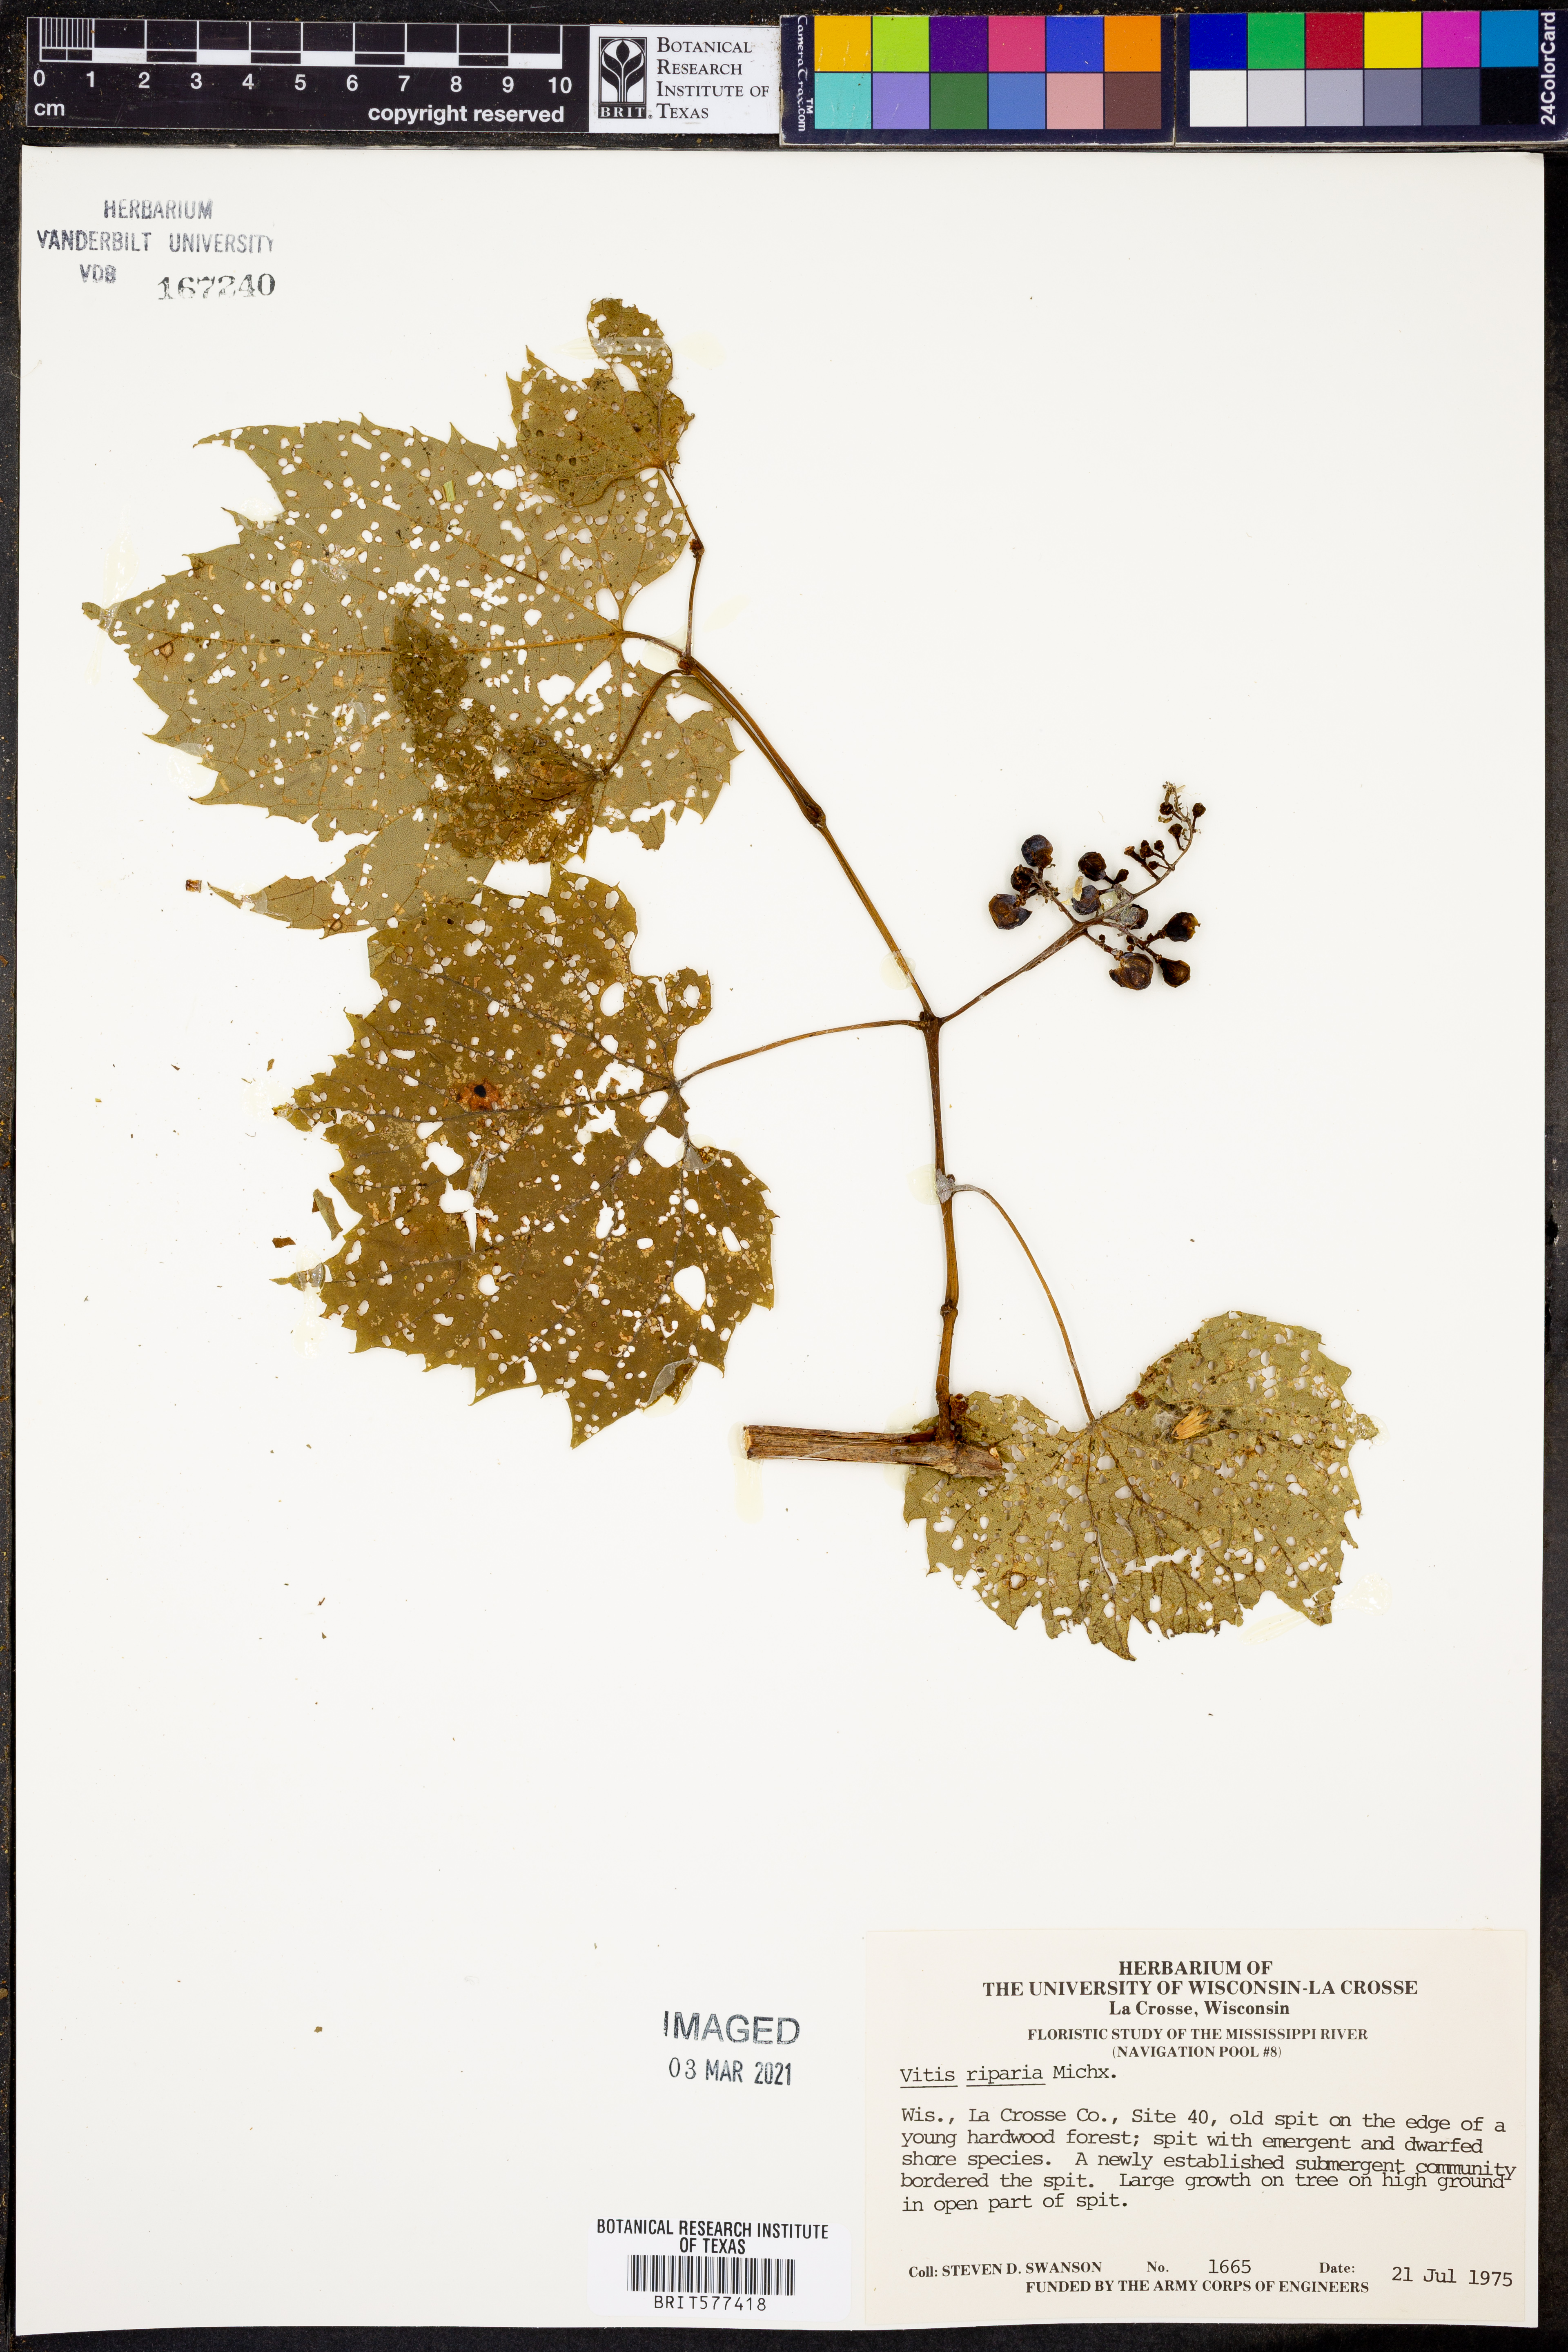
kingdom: Plantae
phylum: Tracheophyta
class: Magnoliopsida
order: Vitales
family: Vitaceae
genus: Vitis
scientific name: Vitis riparia
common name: Frost grape
